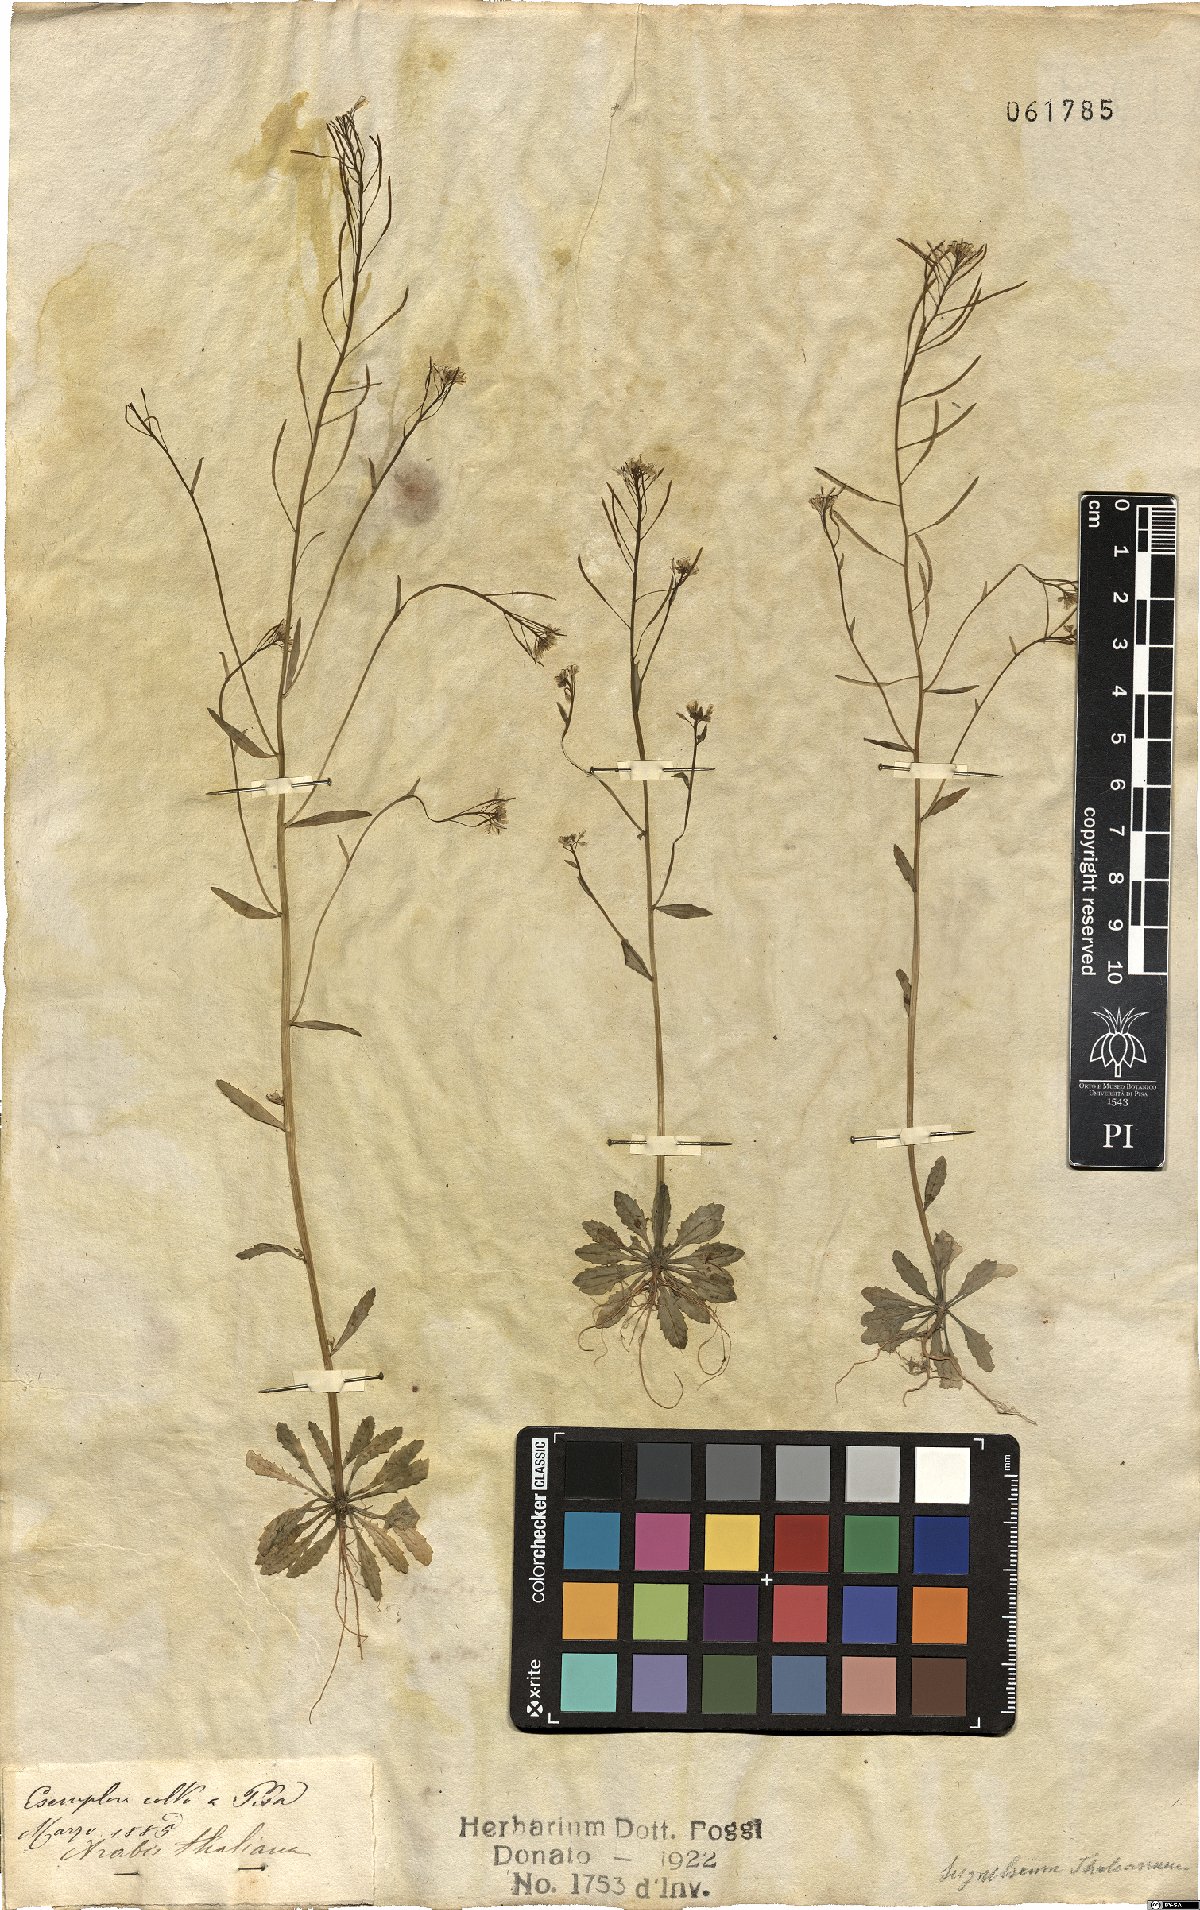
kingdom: Plantae
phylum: Tracheophyta
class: Magnoliopsida
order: Brassicales
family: Brassicaceae
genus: Arabidopsis
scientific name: Arabidopsis thaliana
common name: Thale cress
